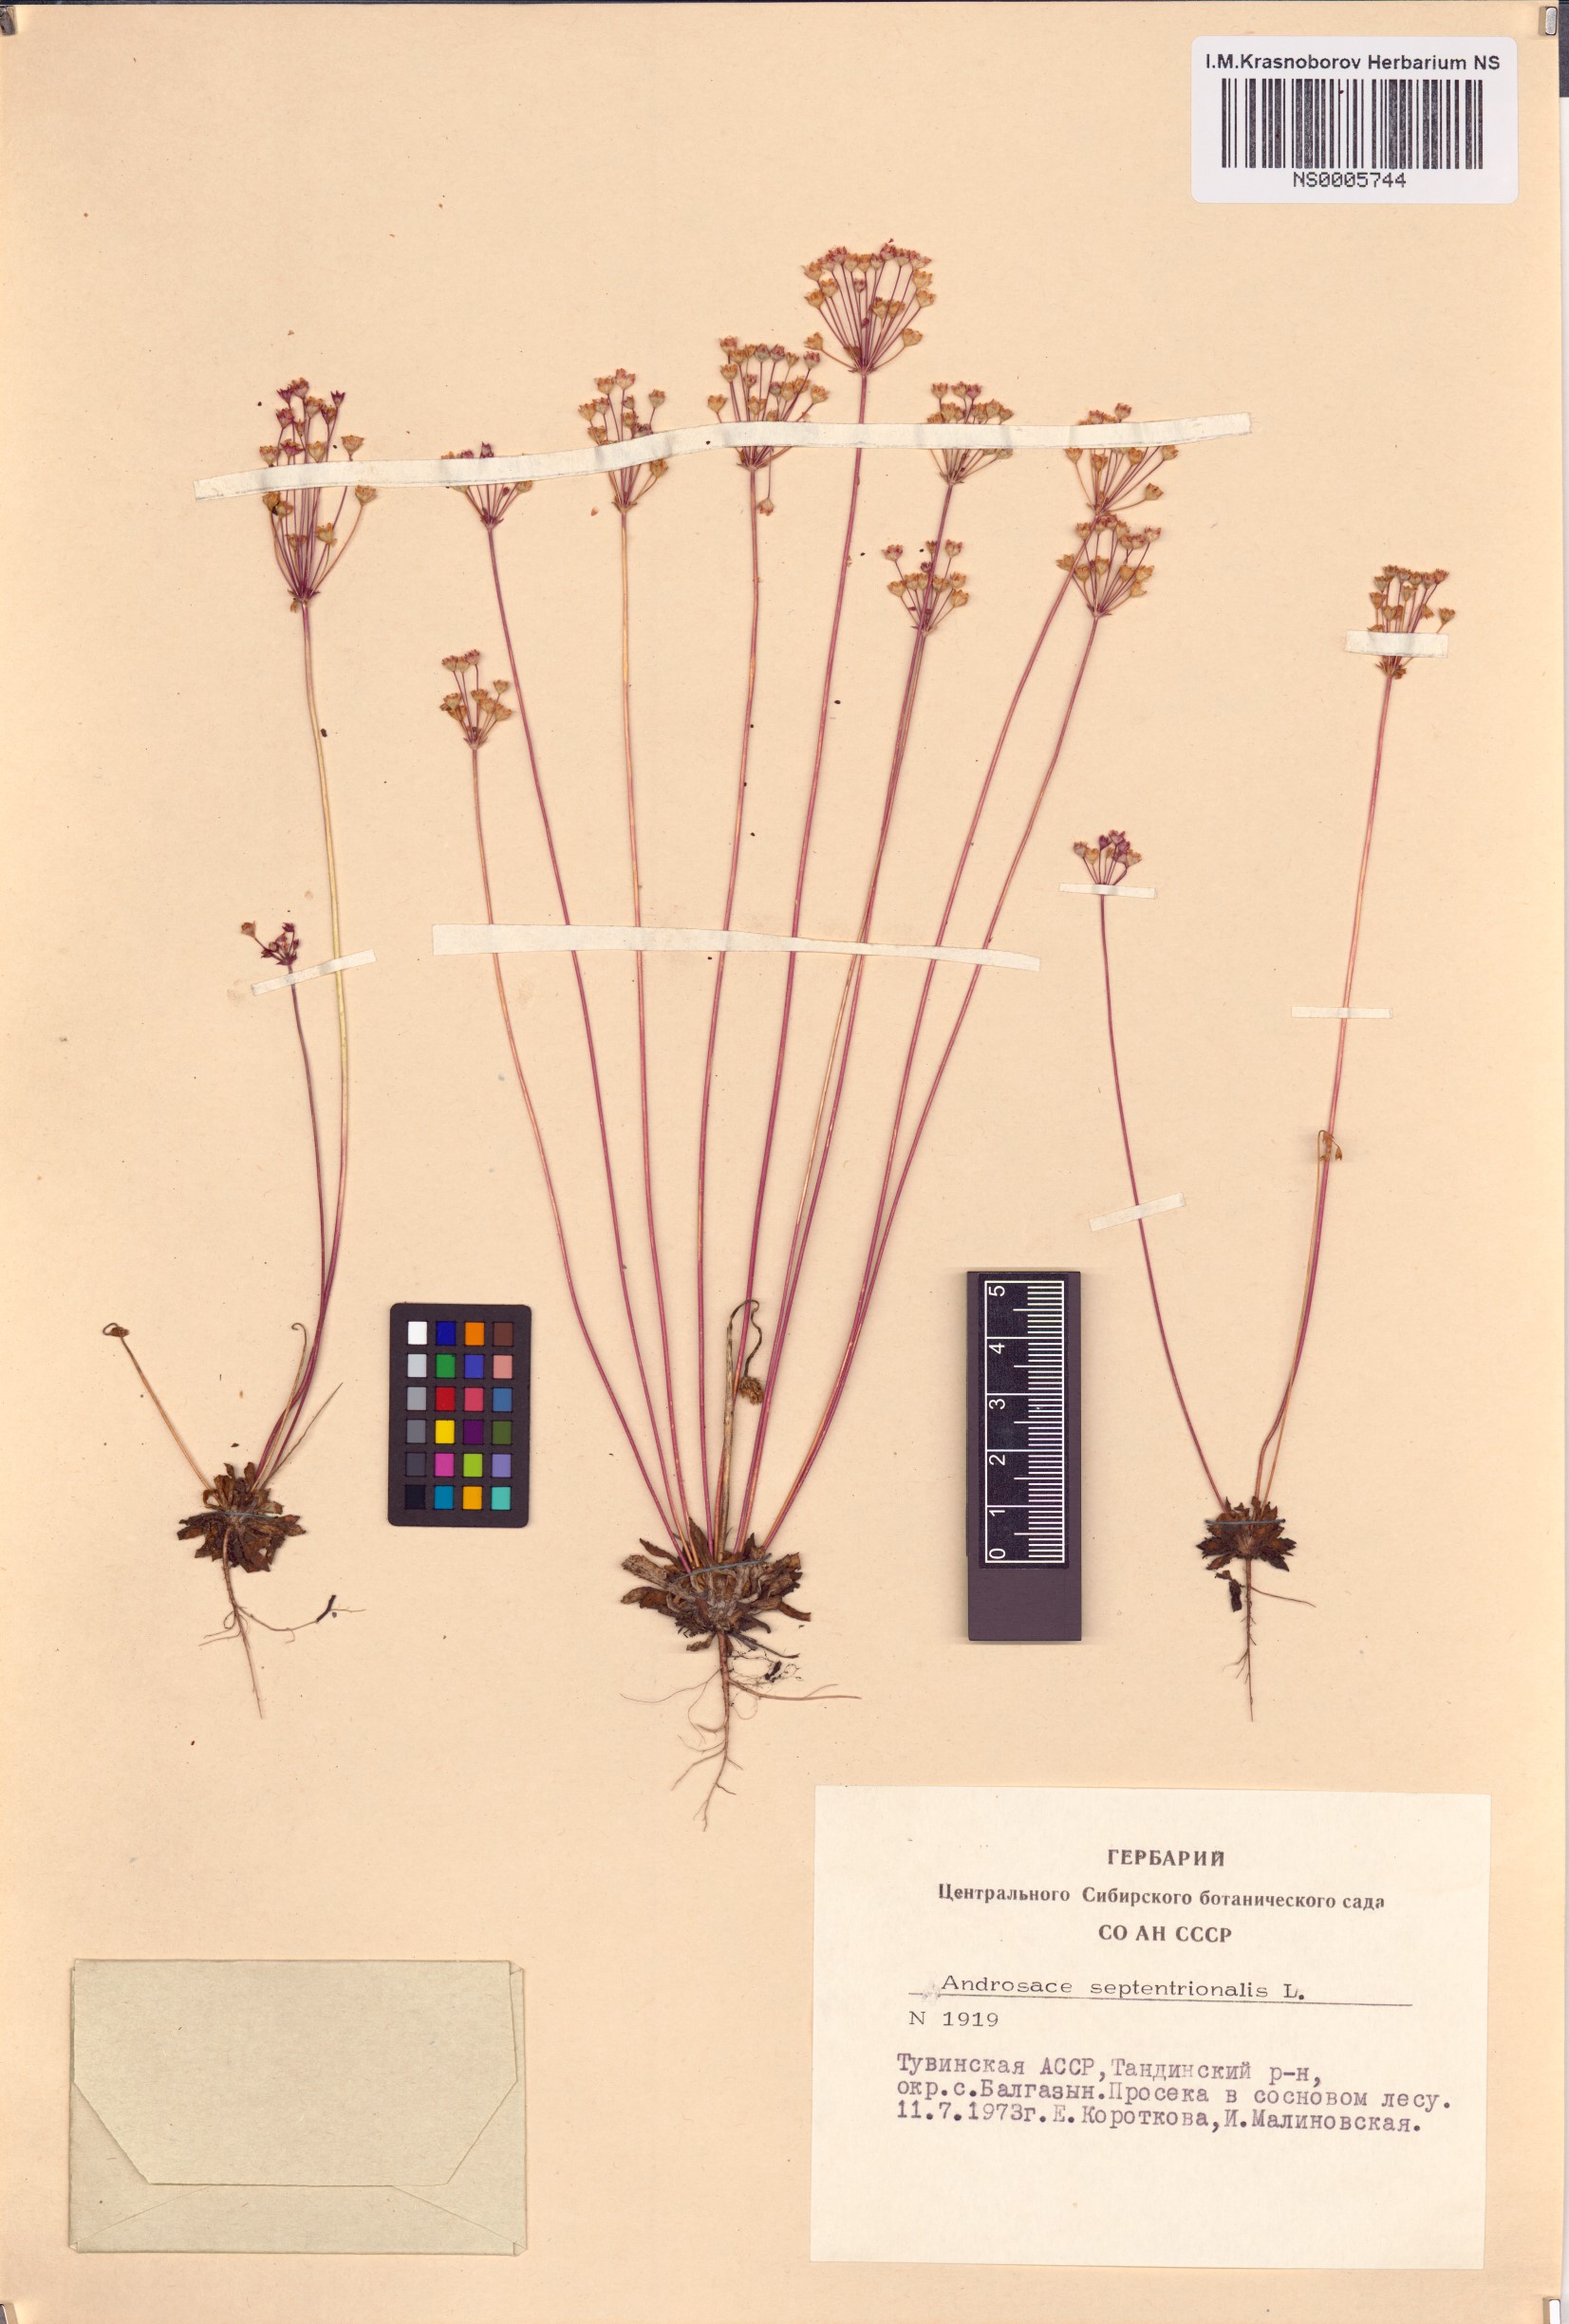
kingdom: Plantae
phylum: Tracheophyta
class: Magnoliopsida
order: Ericales
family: Primulaceae
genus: Androsace
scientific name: Androsace septentrionalis
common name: Hairy northern fairy-candelabra
